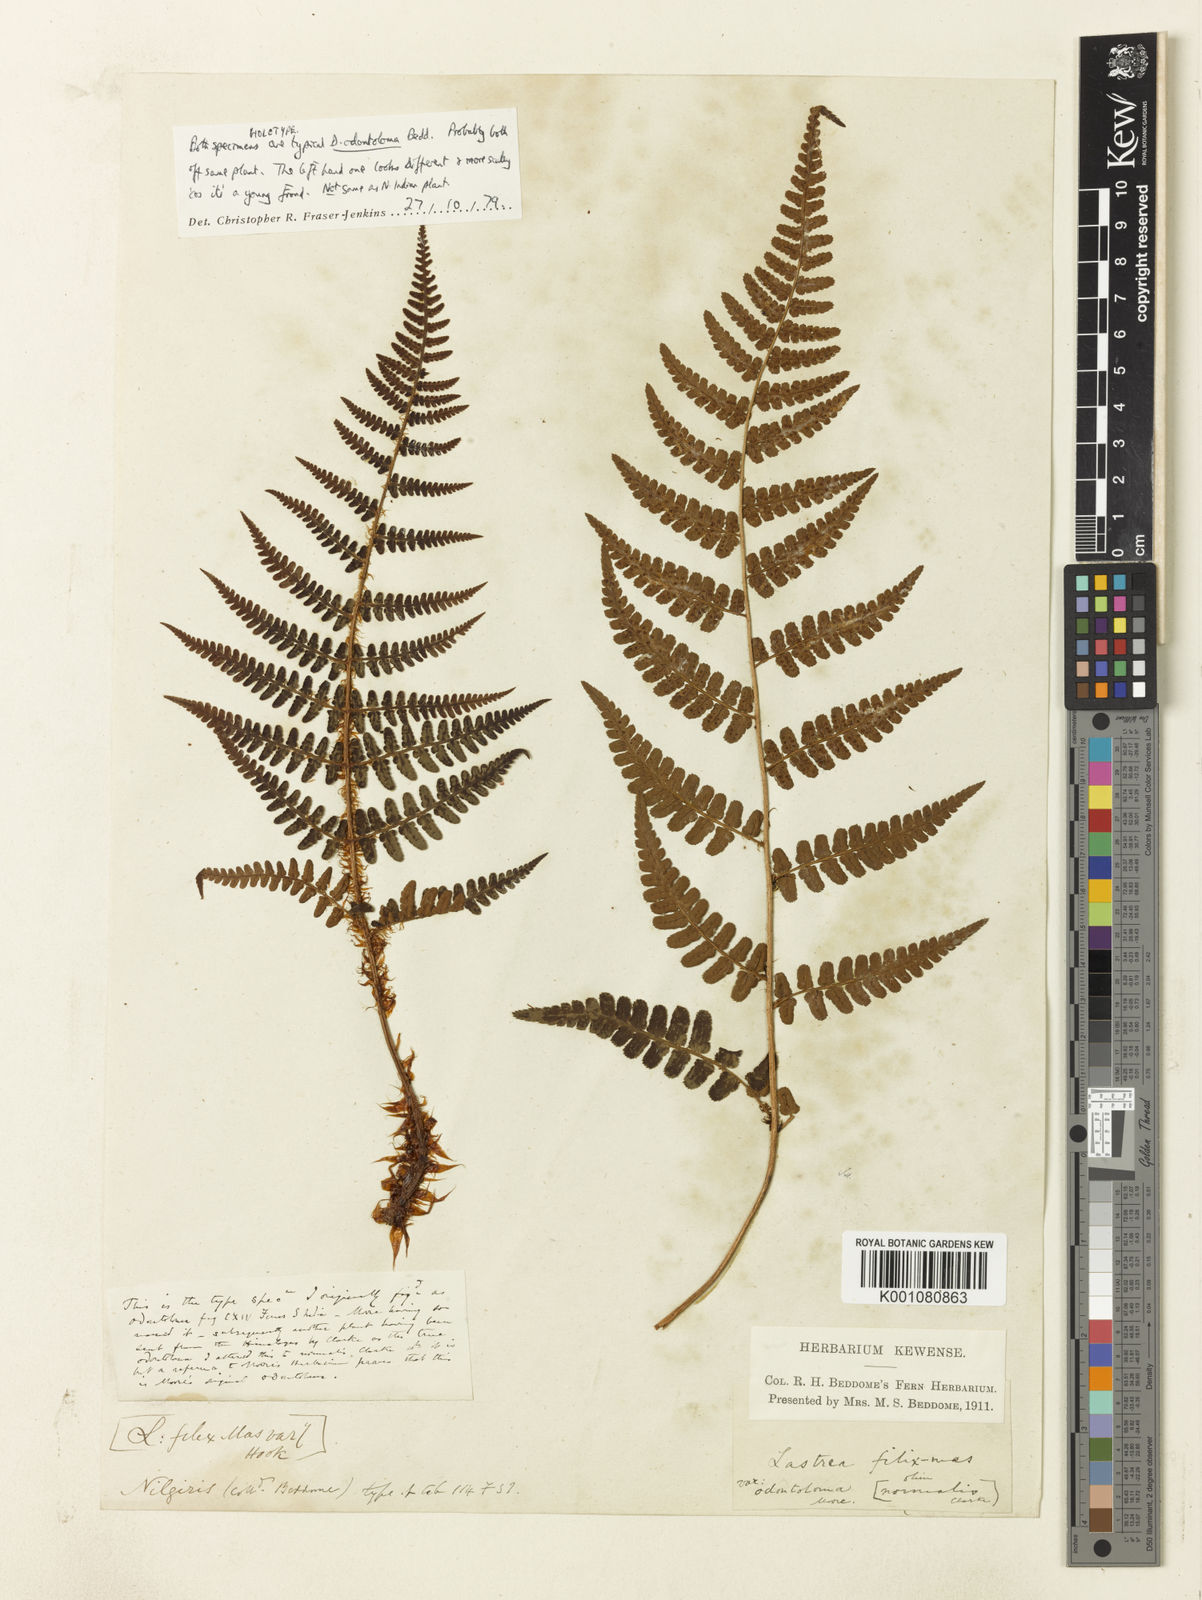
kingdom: Plantae
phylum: Tracheophyta
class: Polypodiopsida
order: Polypodiales
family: Dryopteridaceae
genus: Dryopteris
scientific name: Dryopteris
